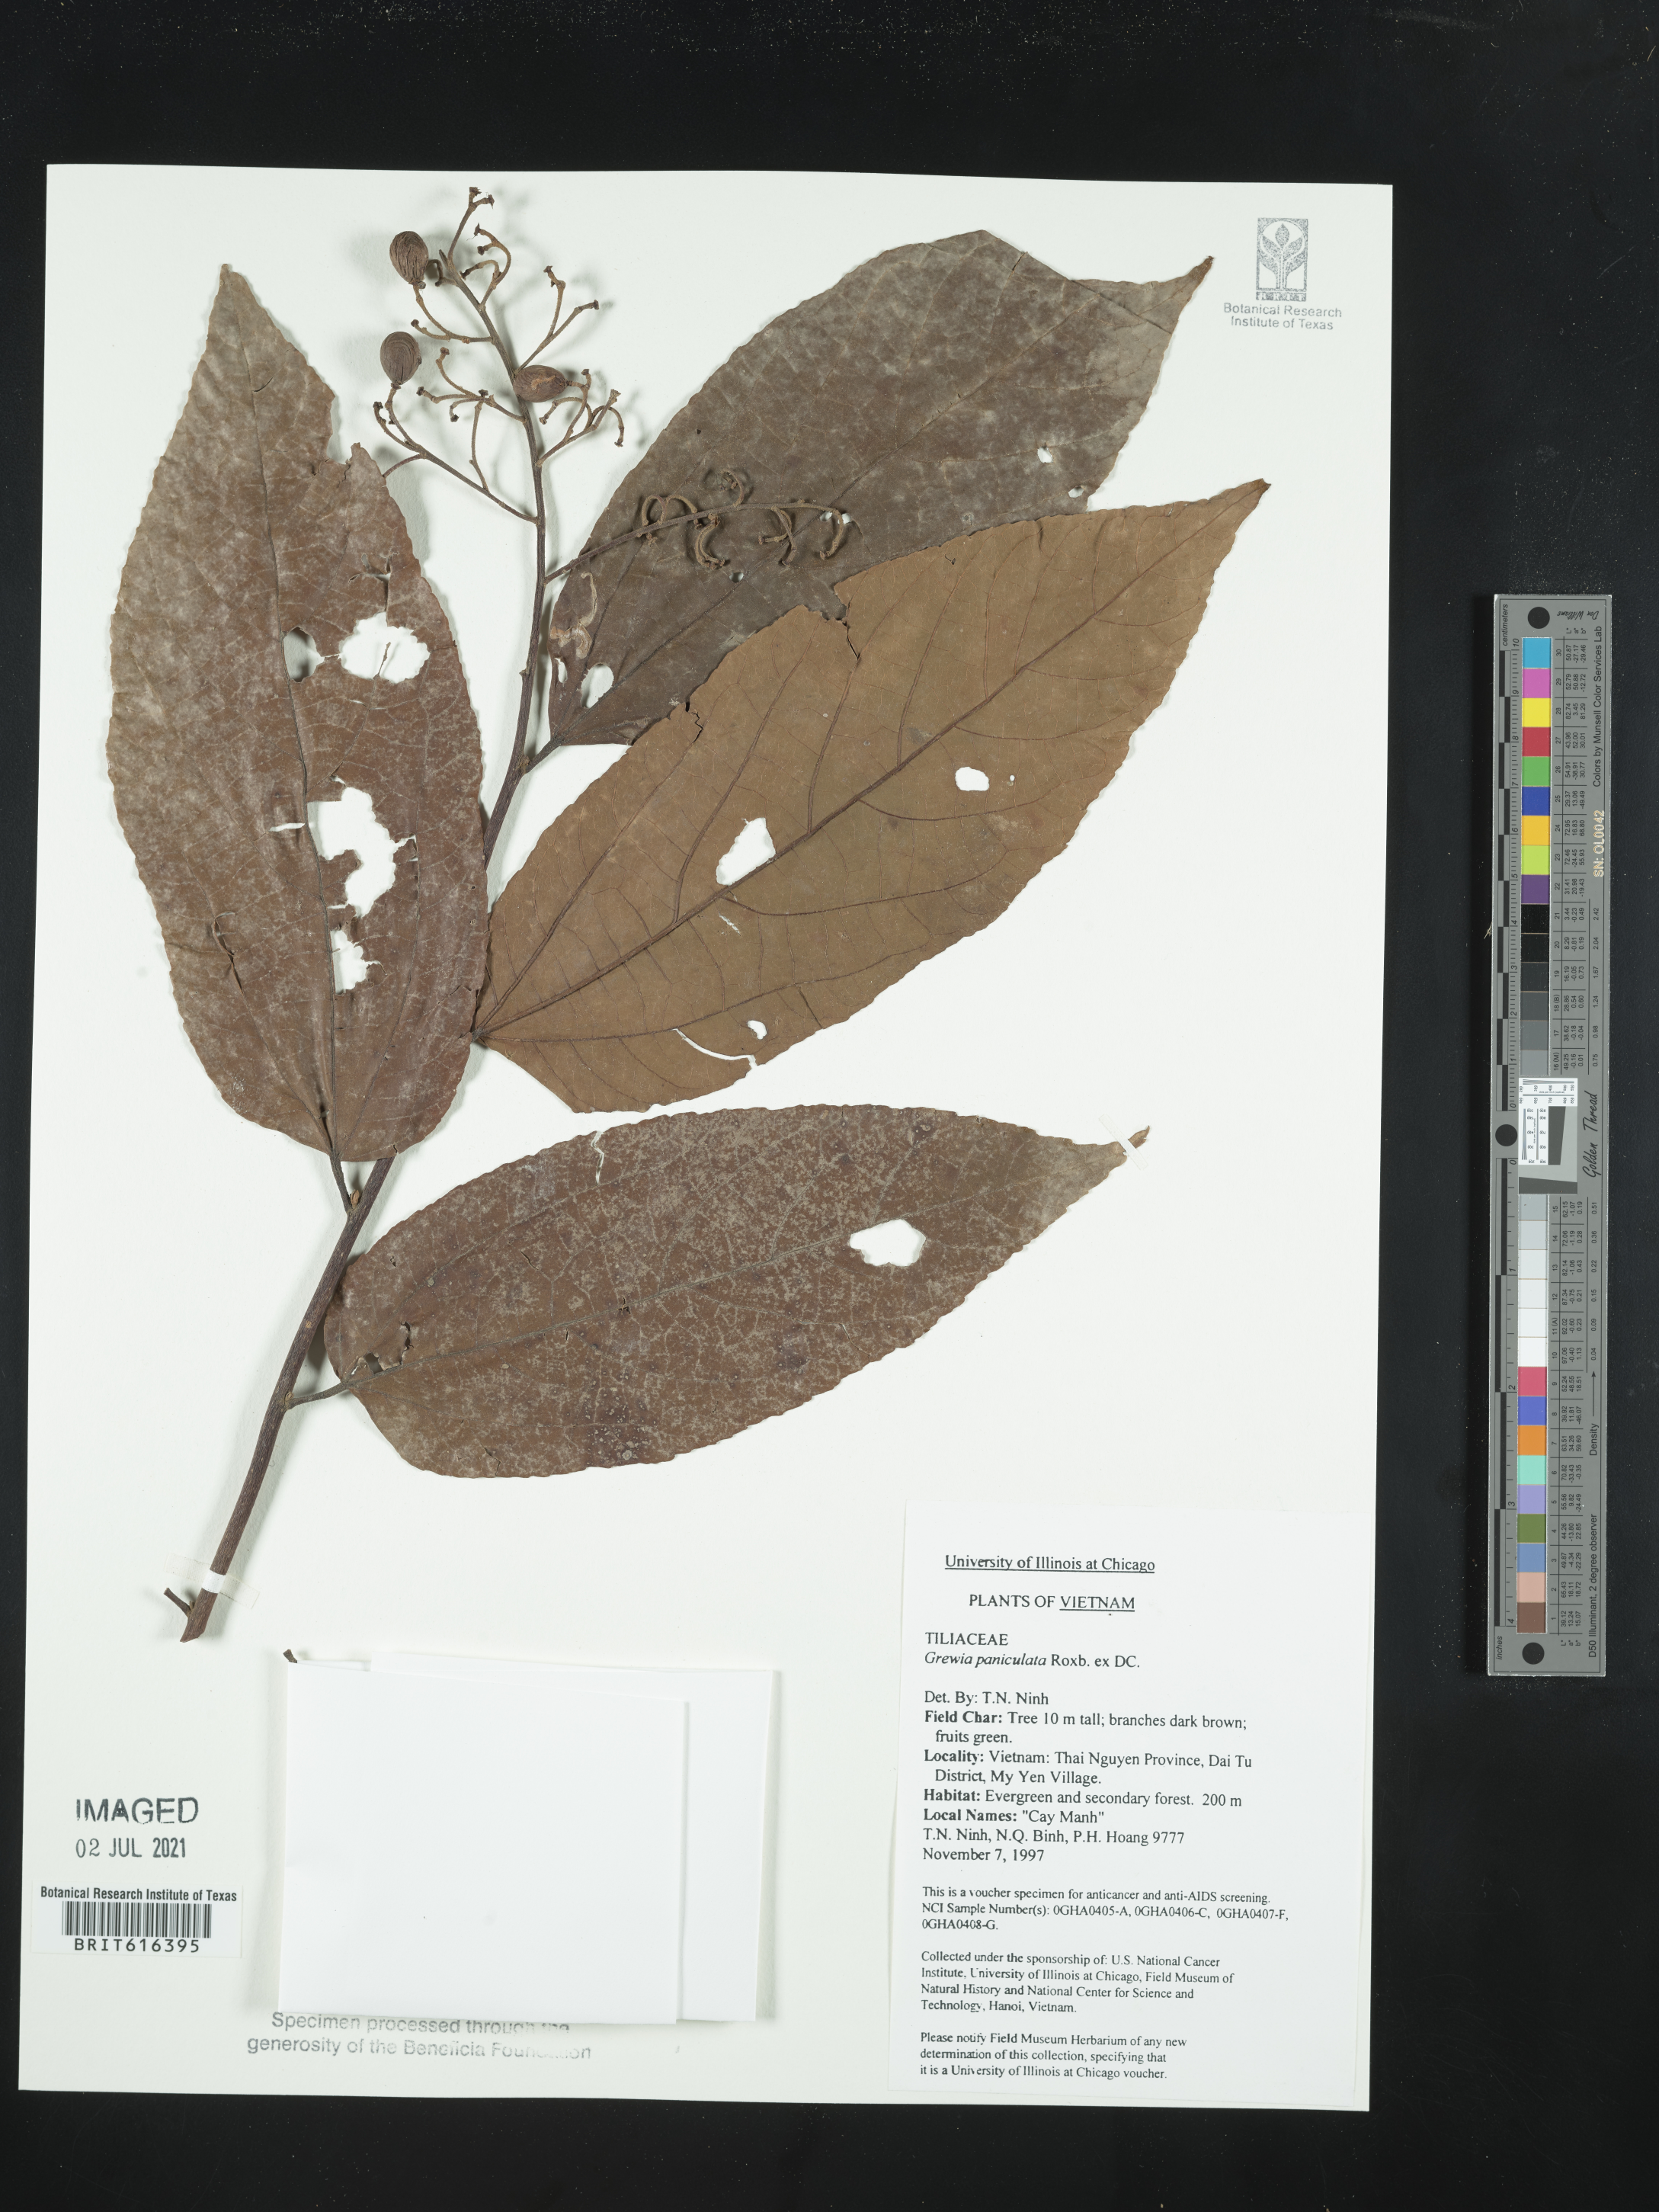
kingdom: Plantae
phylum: Tracheophyta
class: Magnoliopsida
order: Malvales
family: Malvaceae
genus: Microcos
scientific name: Microcos tomentosa
